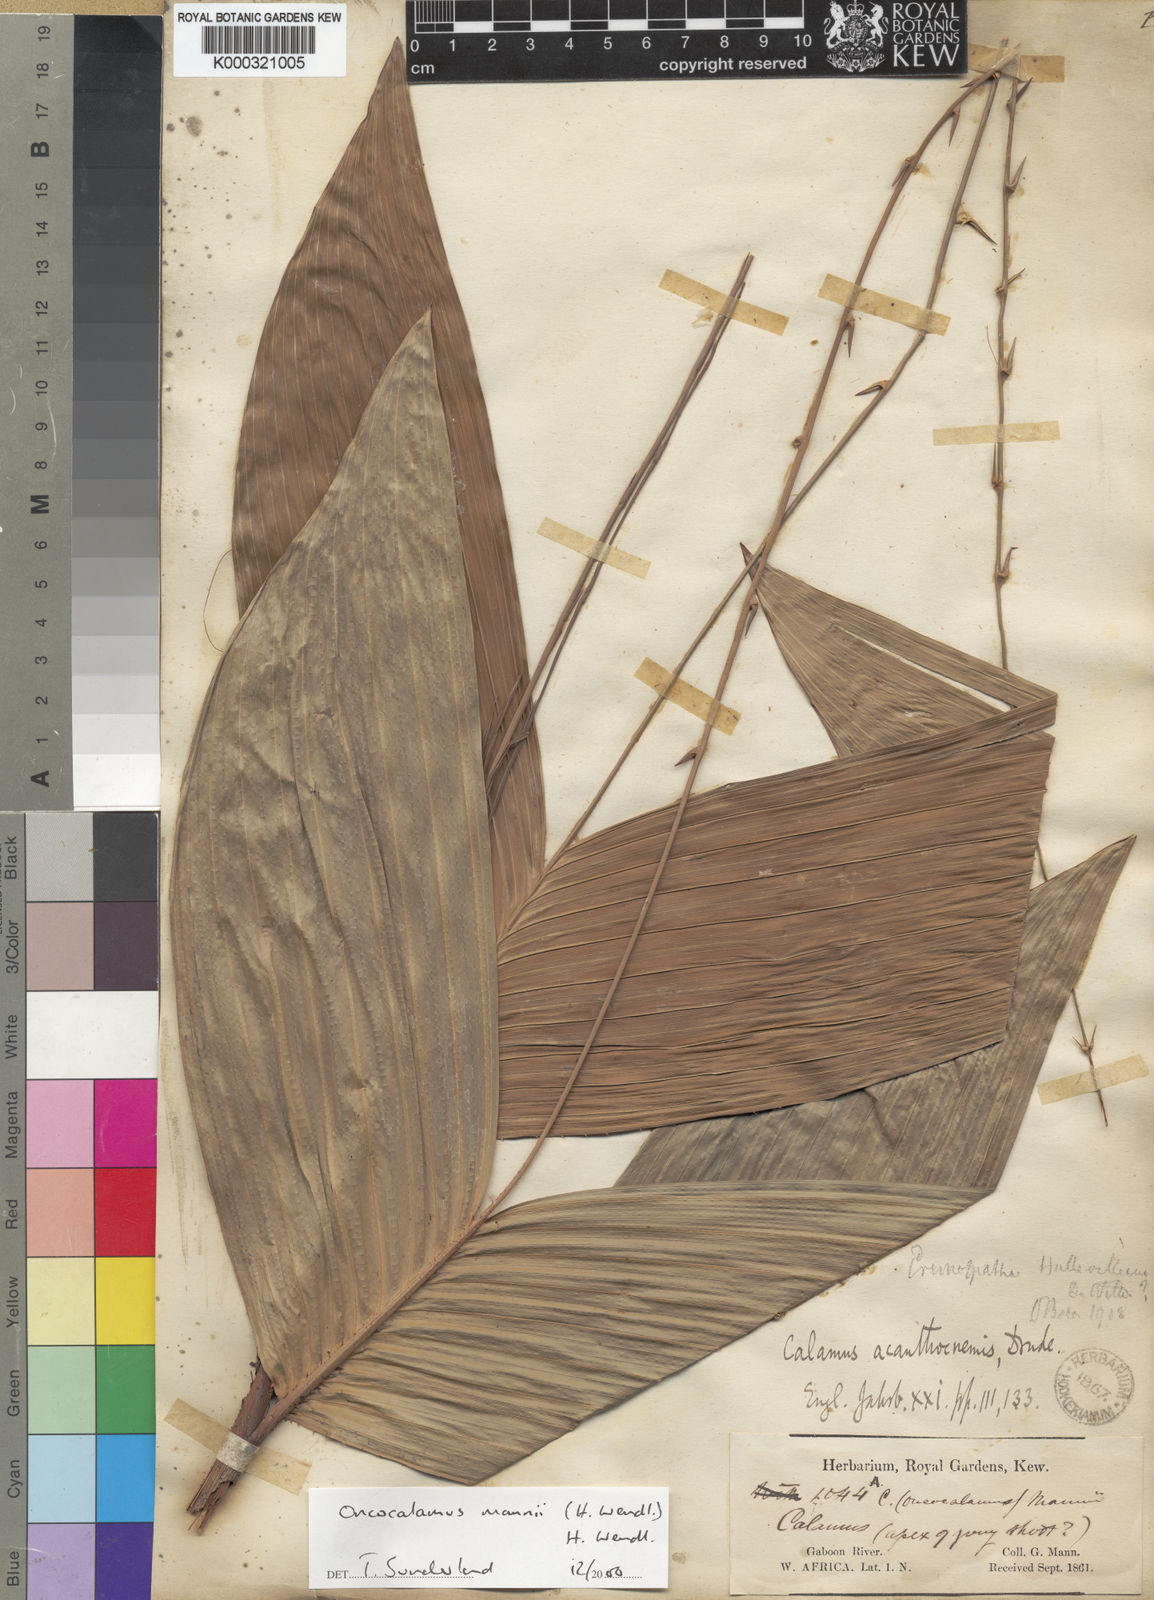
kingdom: Plantae
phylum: Tracheophyta
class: Liliopsida
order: Arecales
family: Arecaceae
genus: Oncocalamus
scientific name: Oncocalamus mannii
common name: Rattan
